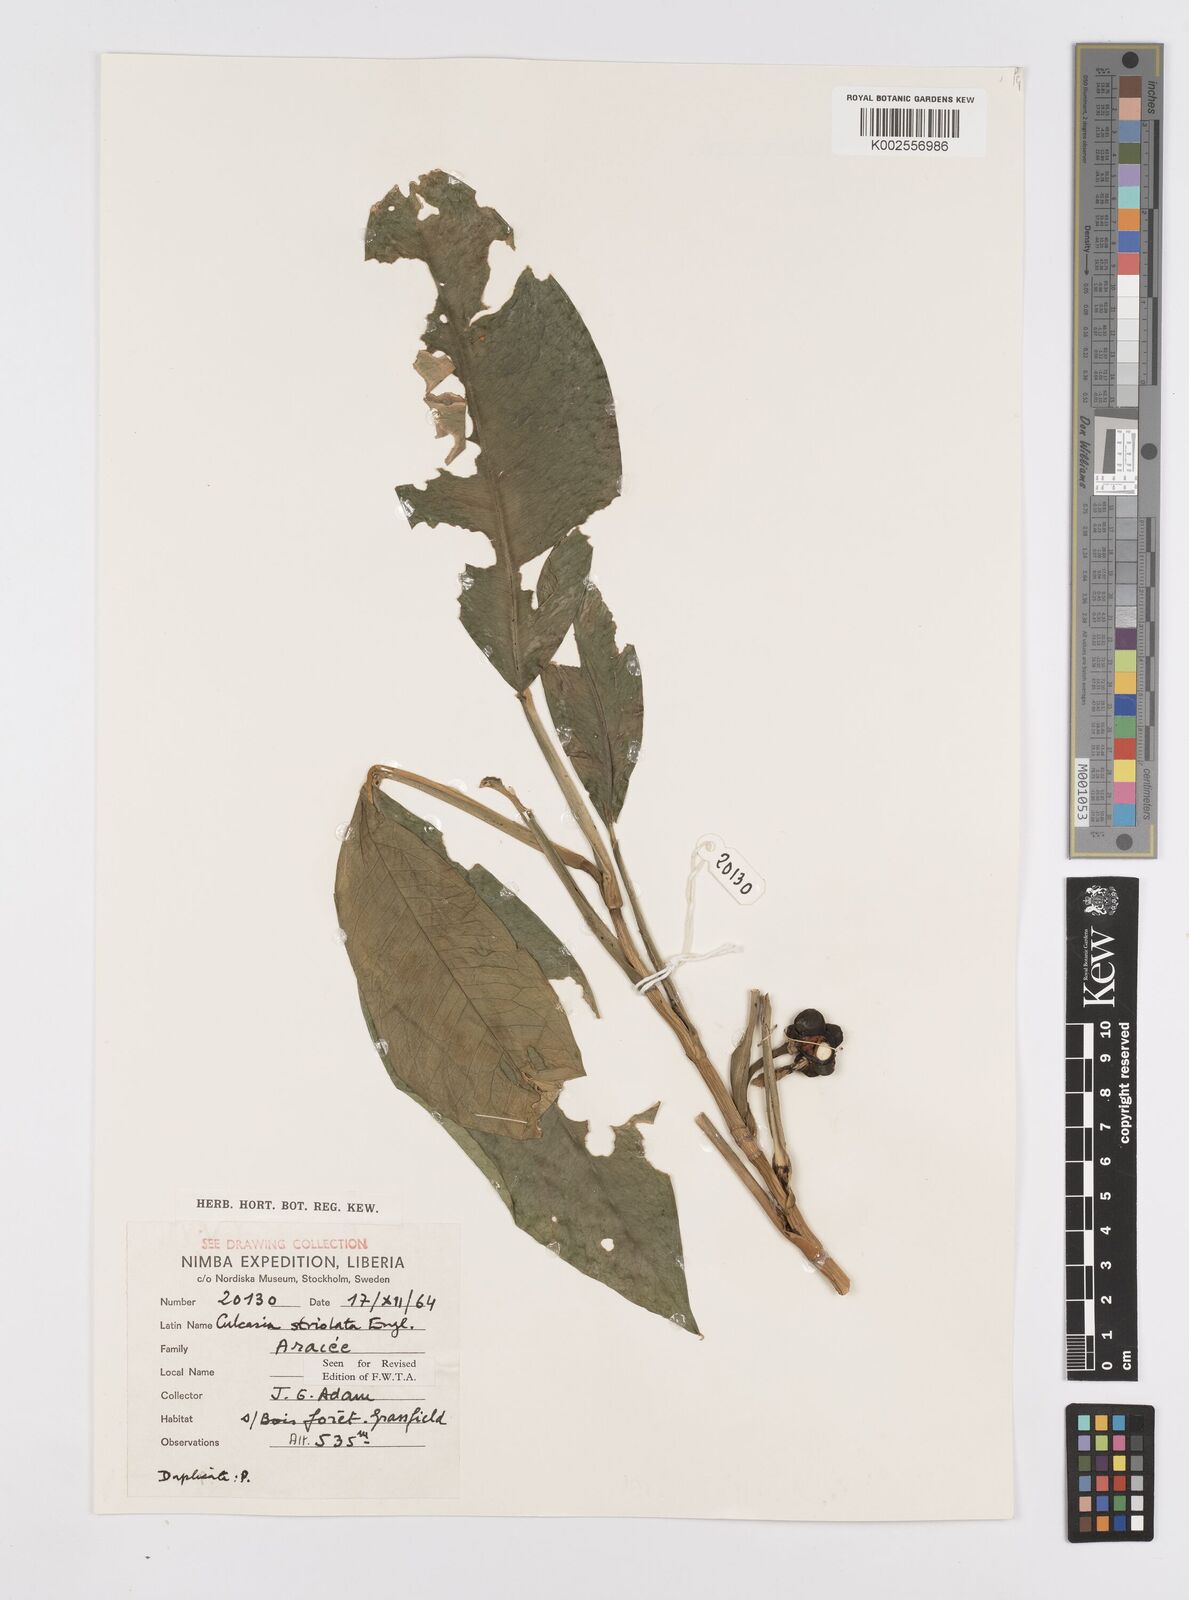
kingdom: Plantae
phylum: Tracheophyta
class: Liliopsida
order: Alismatales
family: Araceae
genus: Culcasia
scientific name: Culcasia striolata
